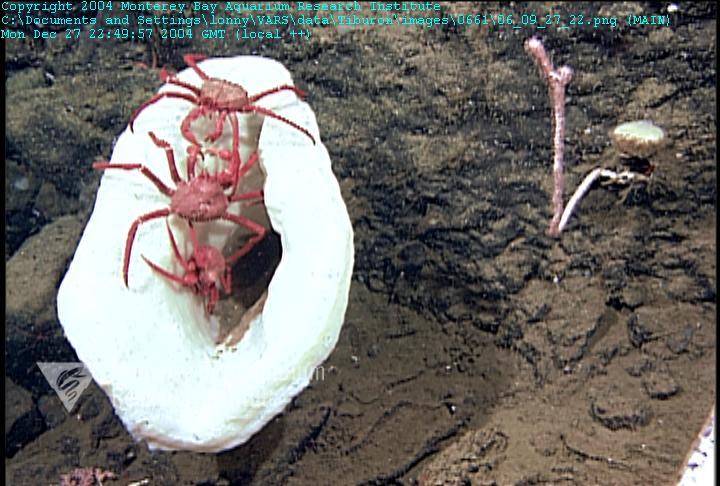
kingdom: Animalia
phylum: Porifera
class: Hexactinellida
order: Sceptrulophora
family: Euretidae
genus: Chonelasma
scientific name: Chonelasma
